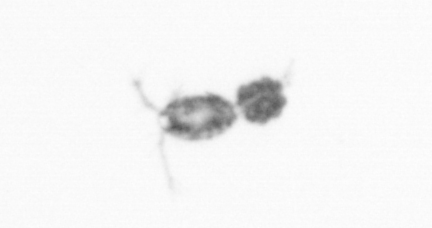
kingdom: Animalia
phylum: Arthropoda
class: Copepoda
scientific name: Copepoda
